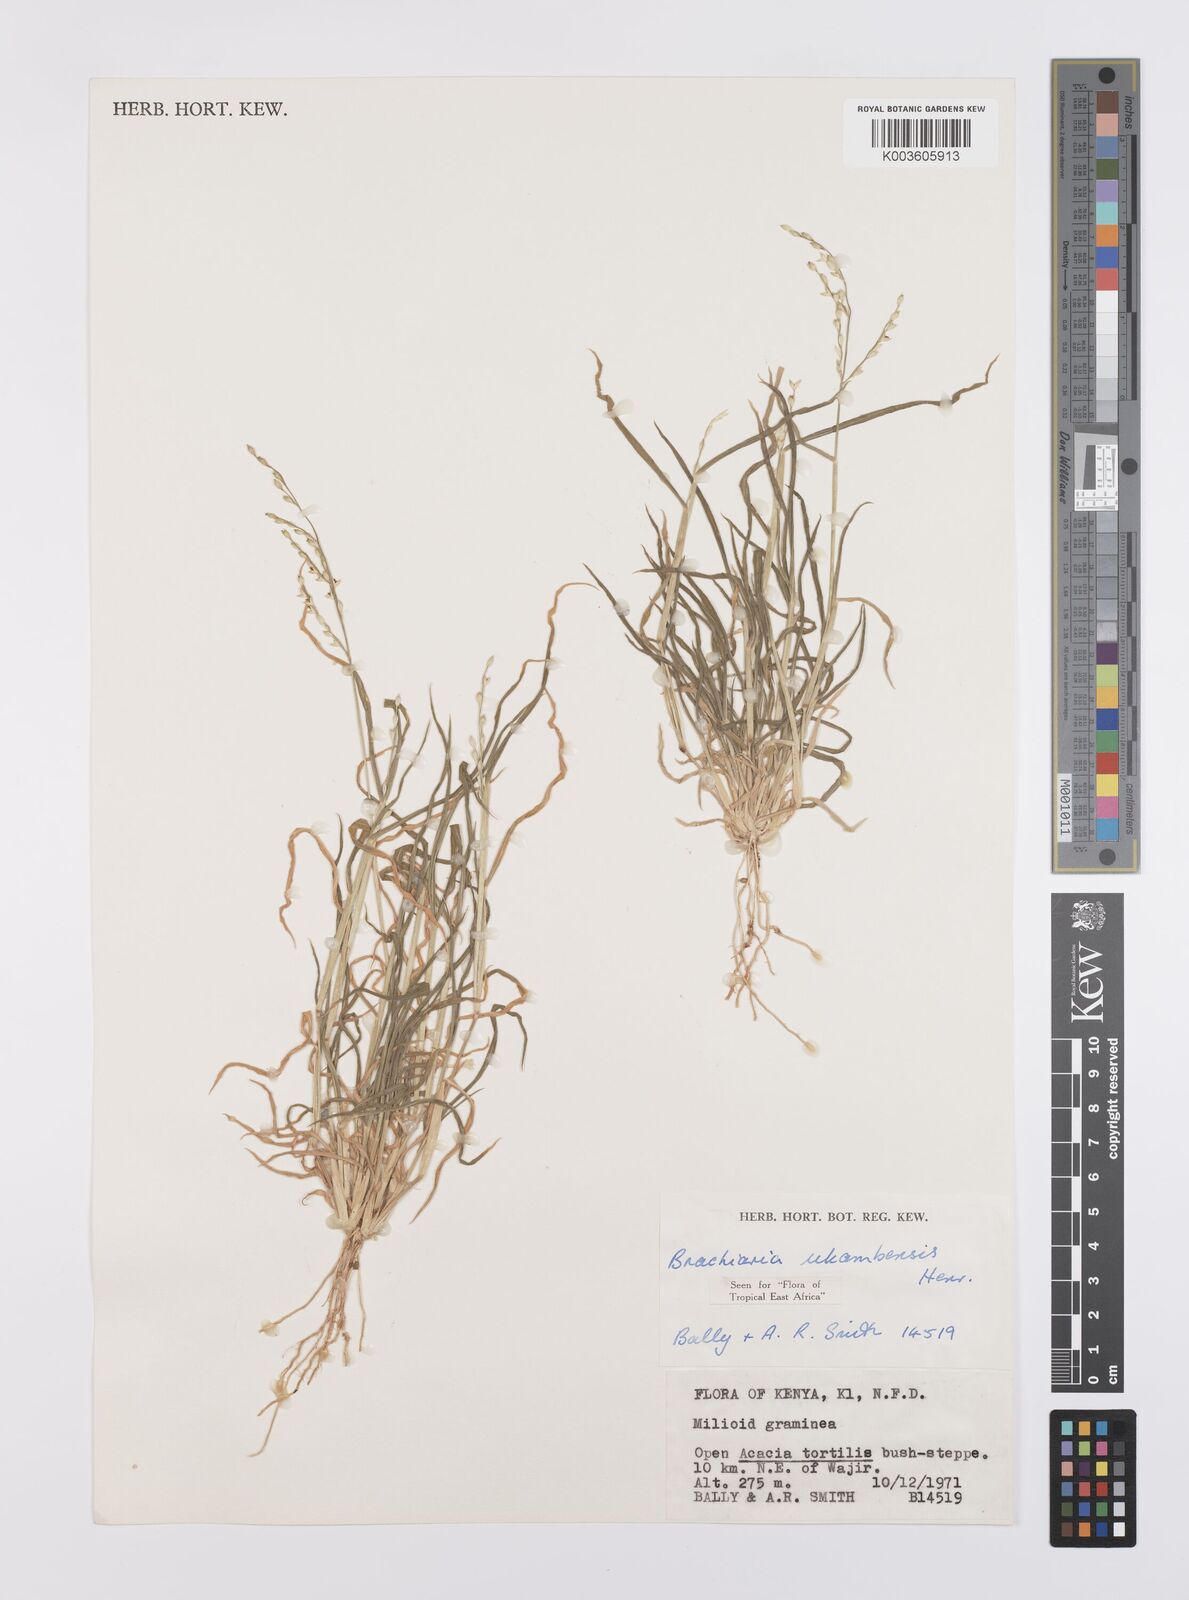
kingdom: Plantae
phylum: Tracheophyta
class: Liliopsida
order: Poales
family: Poaceae
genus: Urochloa
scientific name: Urochloa xantholeuca
